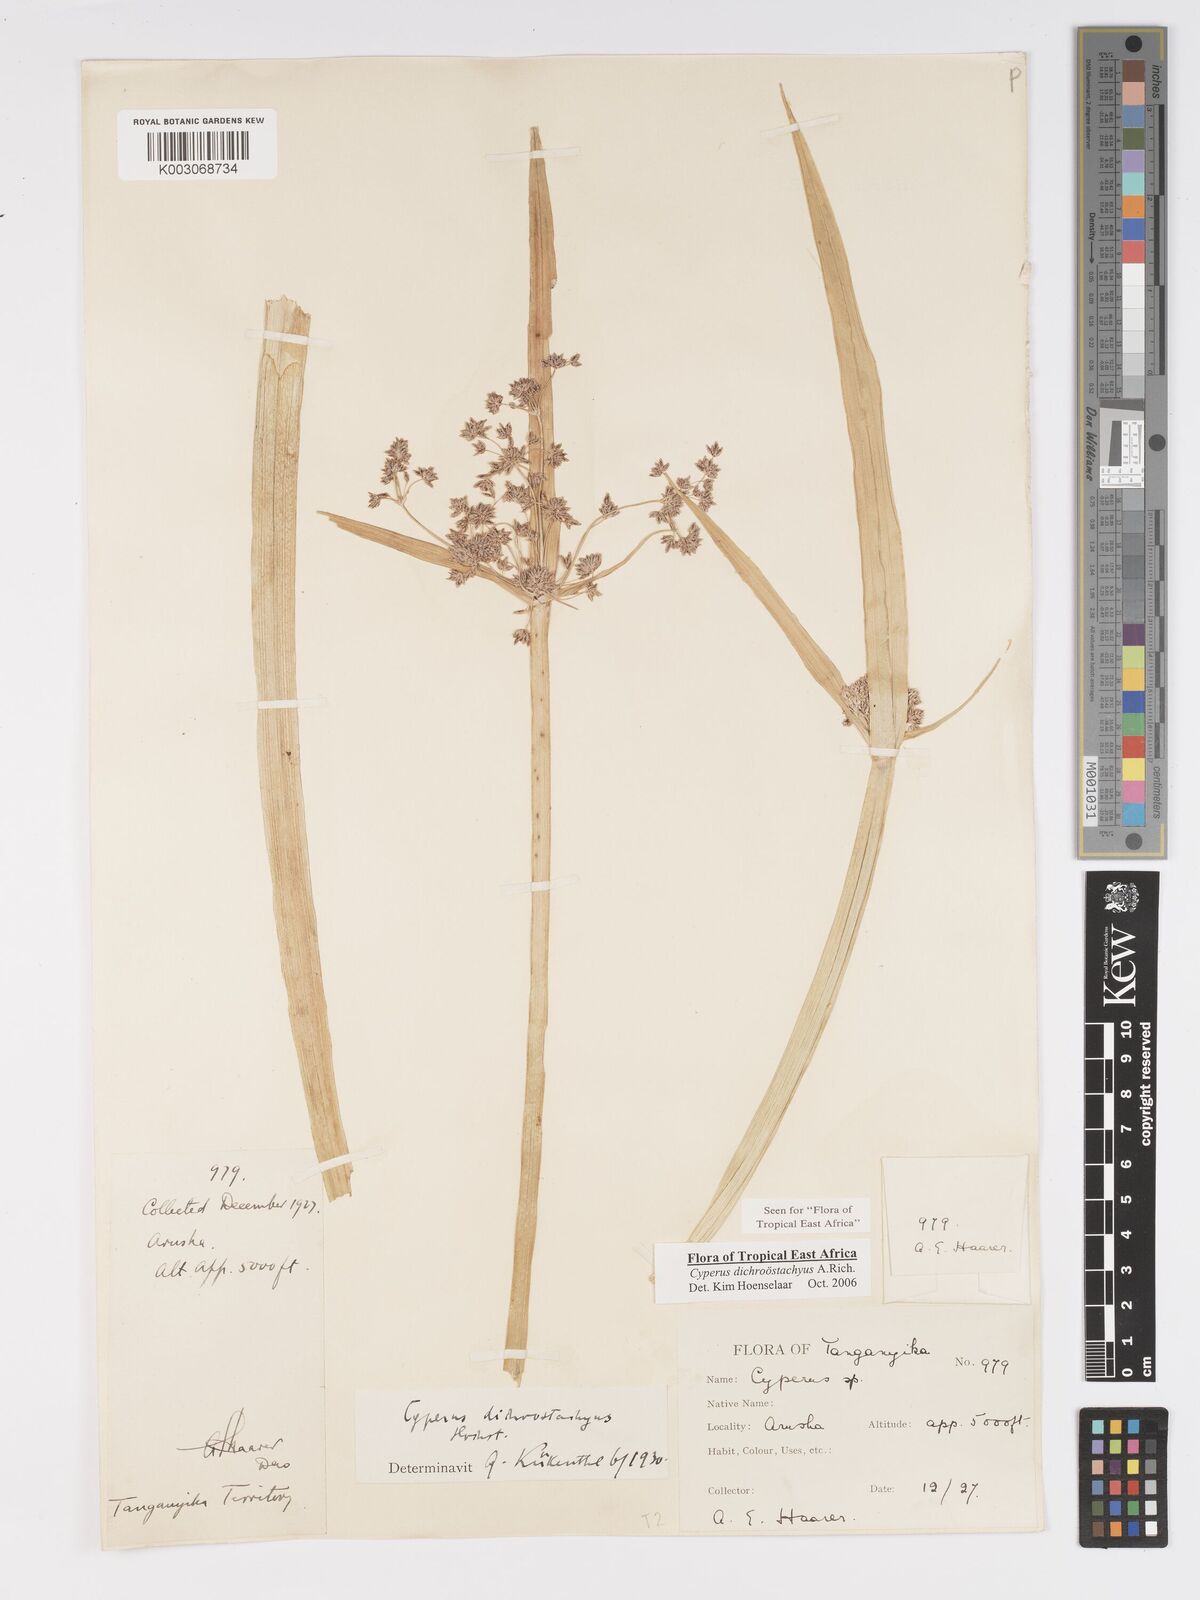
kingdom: Plantae
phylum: Tracheophyta
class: Liliopsida
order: Poales
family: Cyperaceae
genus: Cyperus
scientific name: Cyperus dichrostachyus
